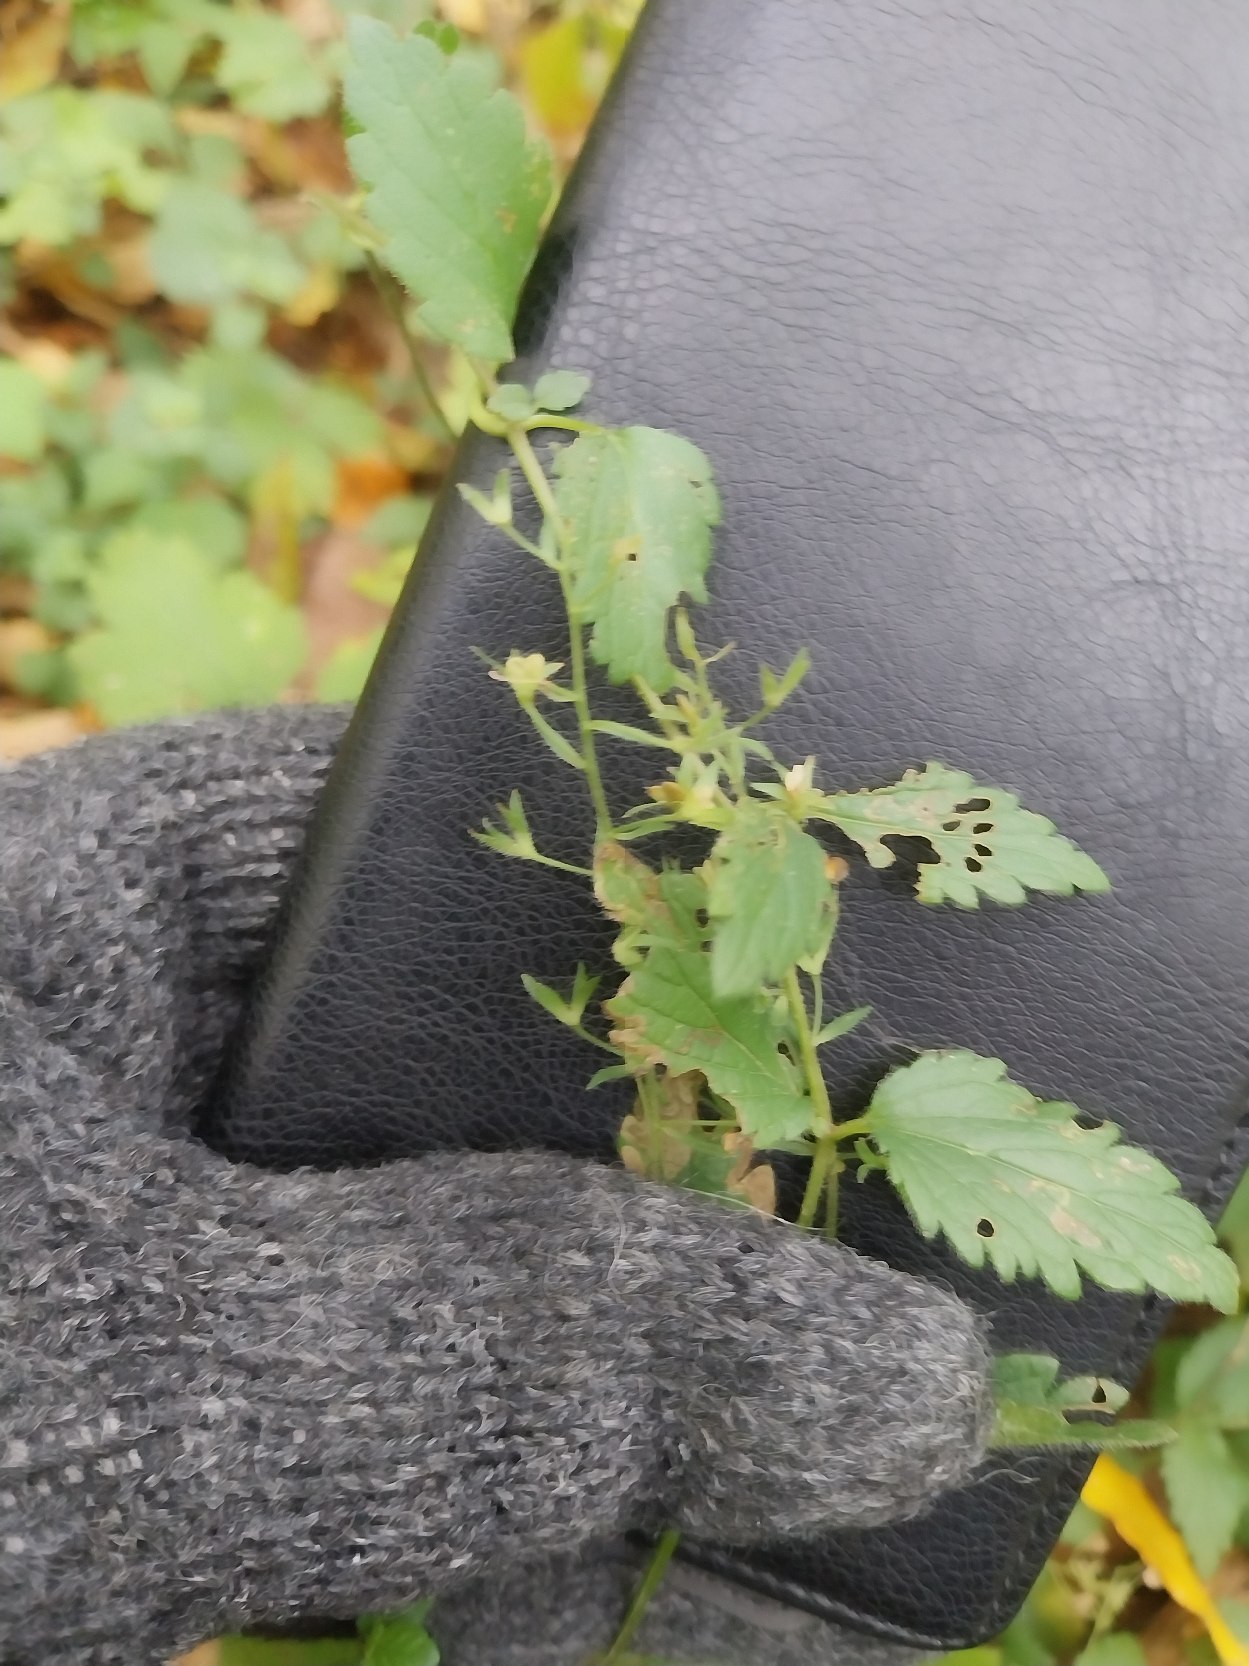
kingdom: Plantae
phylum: Tracheophyta
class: Magnoliopsida
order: Lamiales
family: Plantaginaceae
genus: Veronica
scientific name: Veronica chamaedrys
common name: Tveskægget ærenpris
